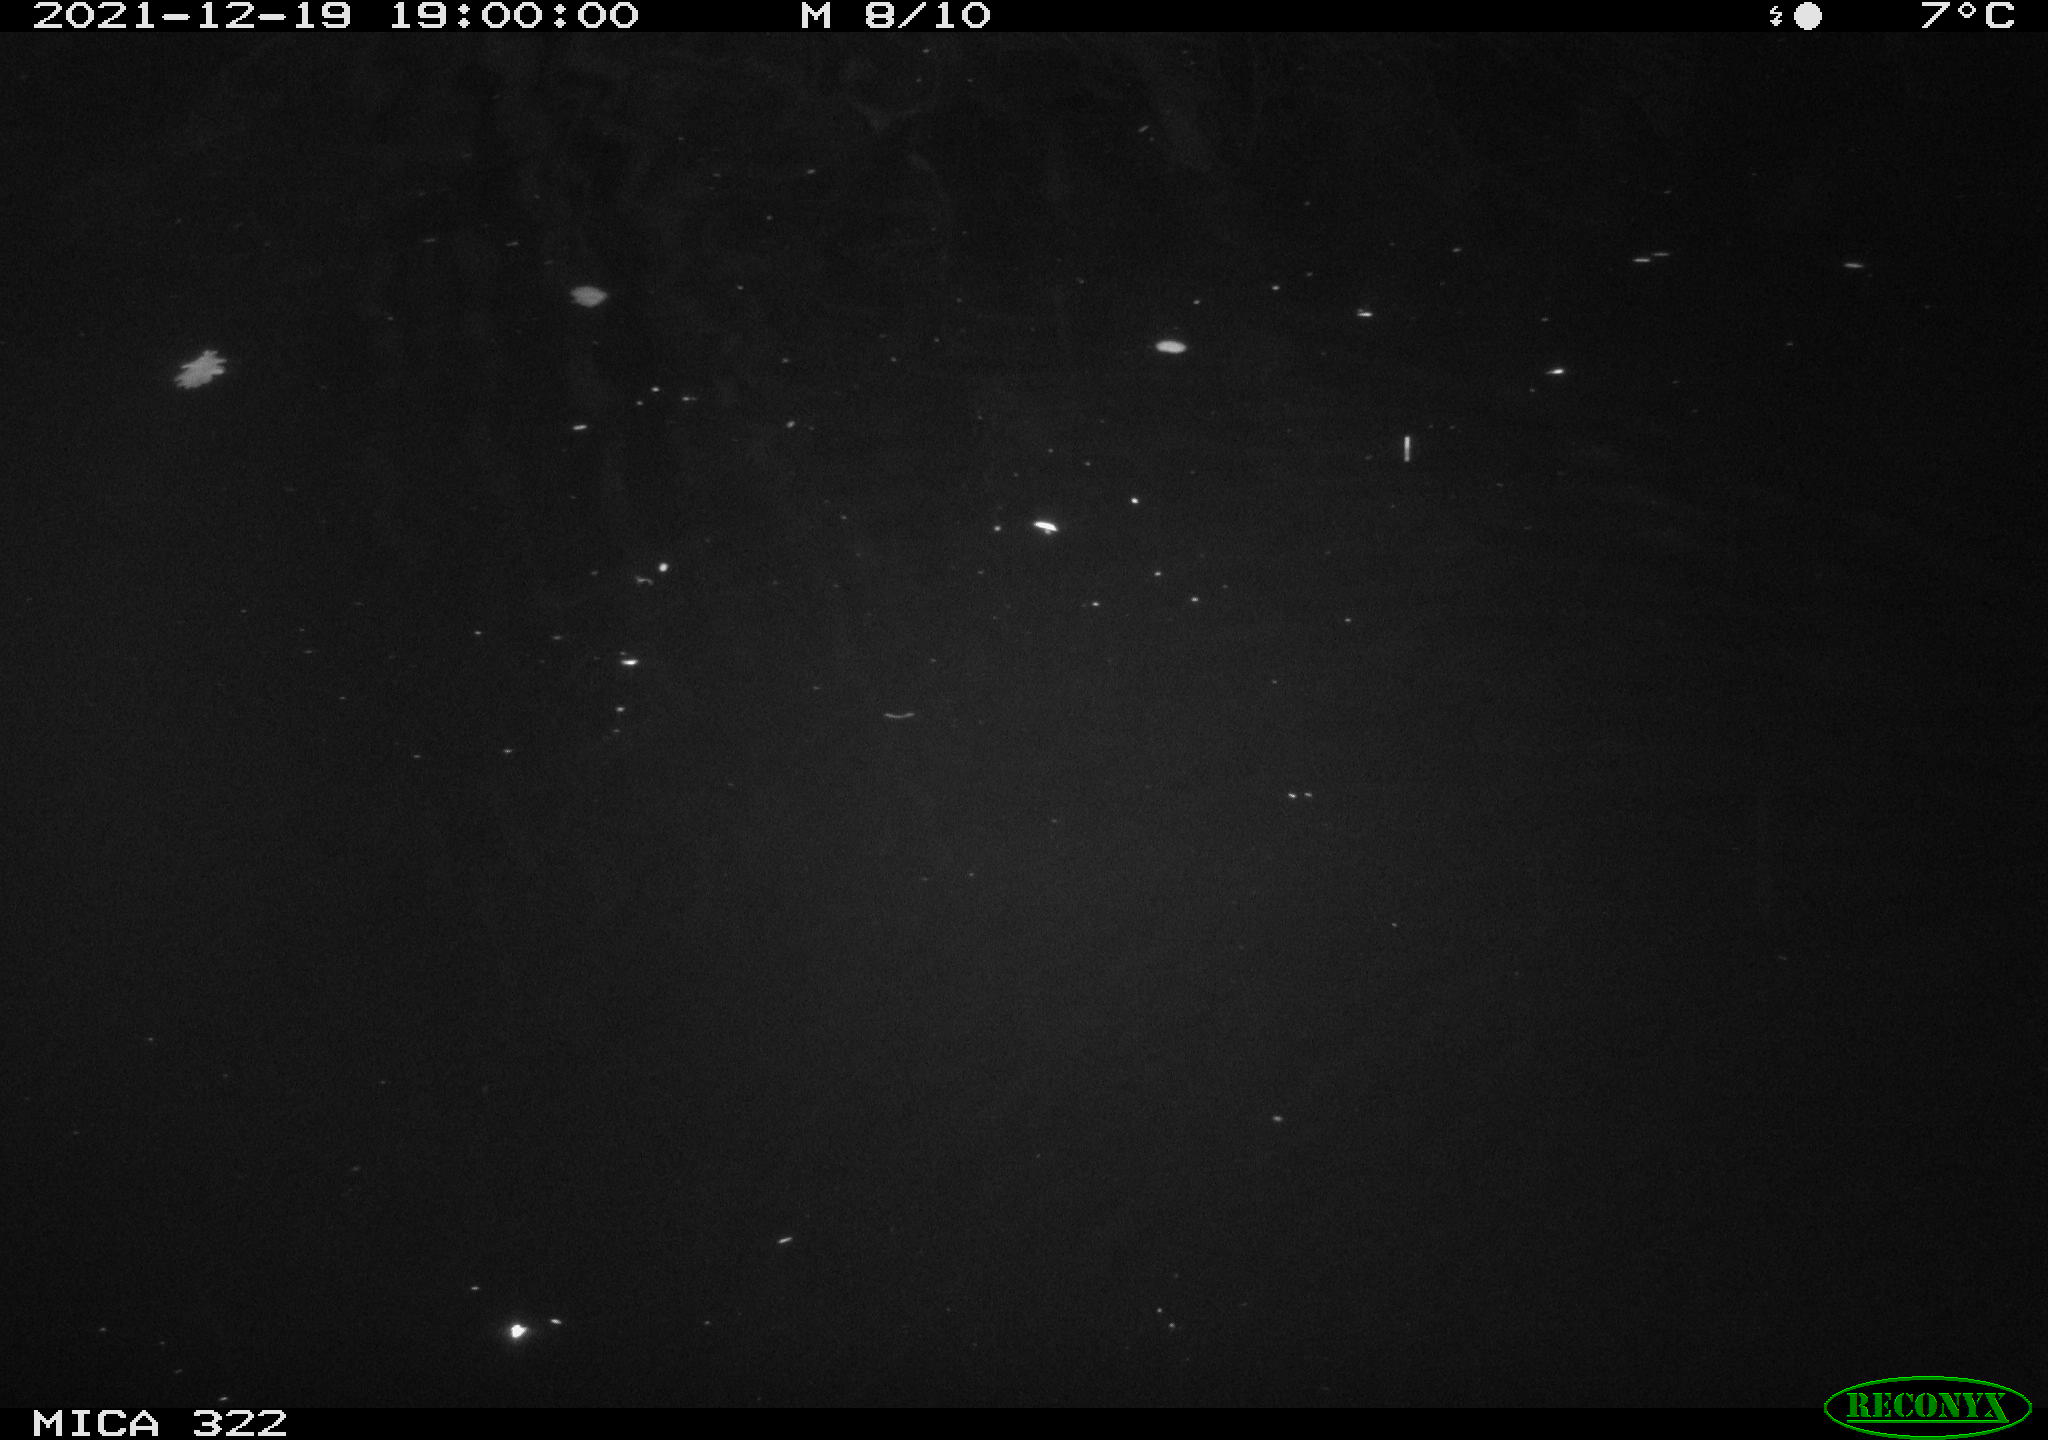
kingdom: Animalia
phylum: Chordata
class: Mammalia
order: Rodentia
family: Muridae
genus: Rattus
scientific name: Rattus norvegicus
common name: Brown rat
